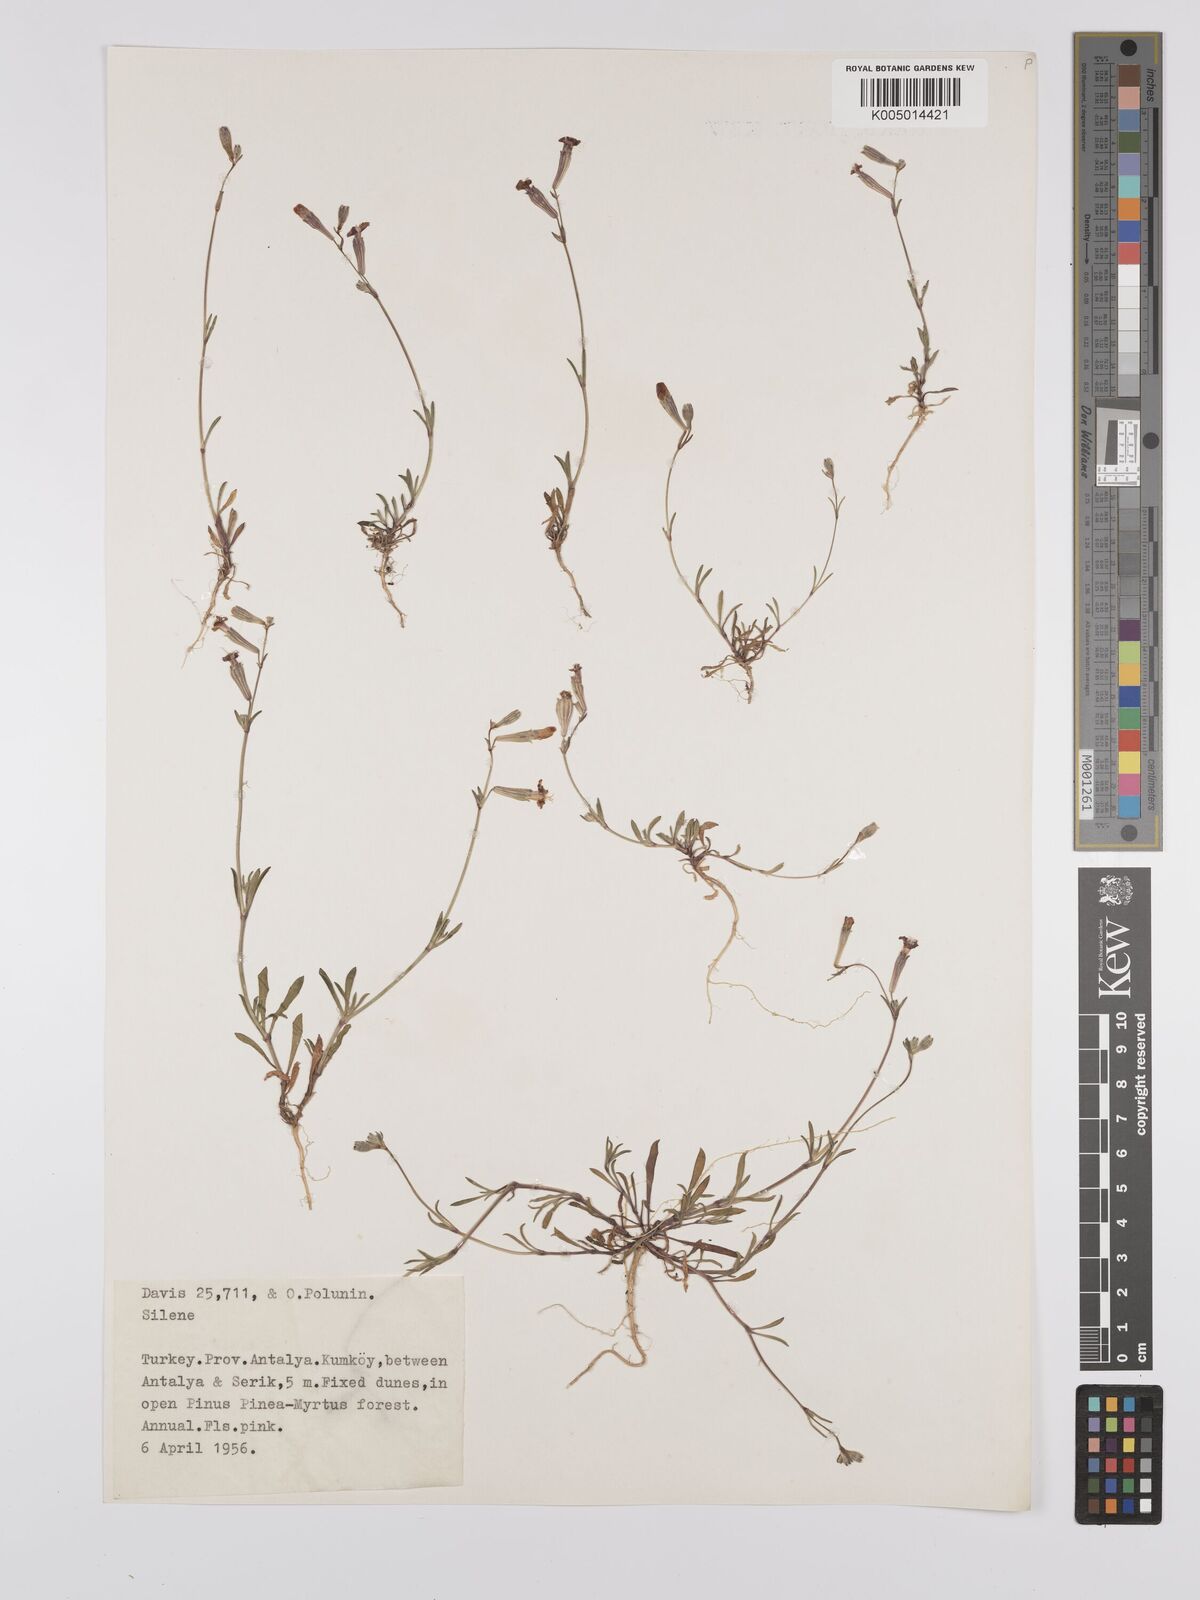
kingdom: Plantae
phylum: Tracheophyta
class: Magnoliopsida
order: Caryophyllales
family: Caryophyllaceae
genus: Silene
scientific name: Silene
